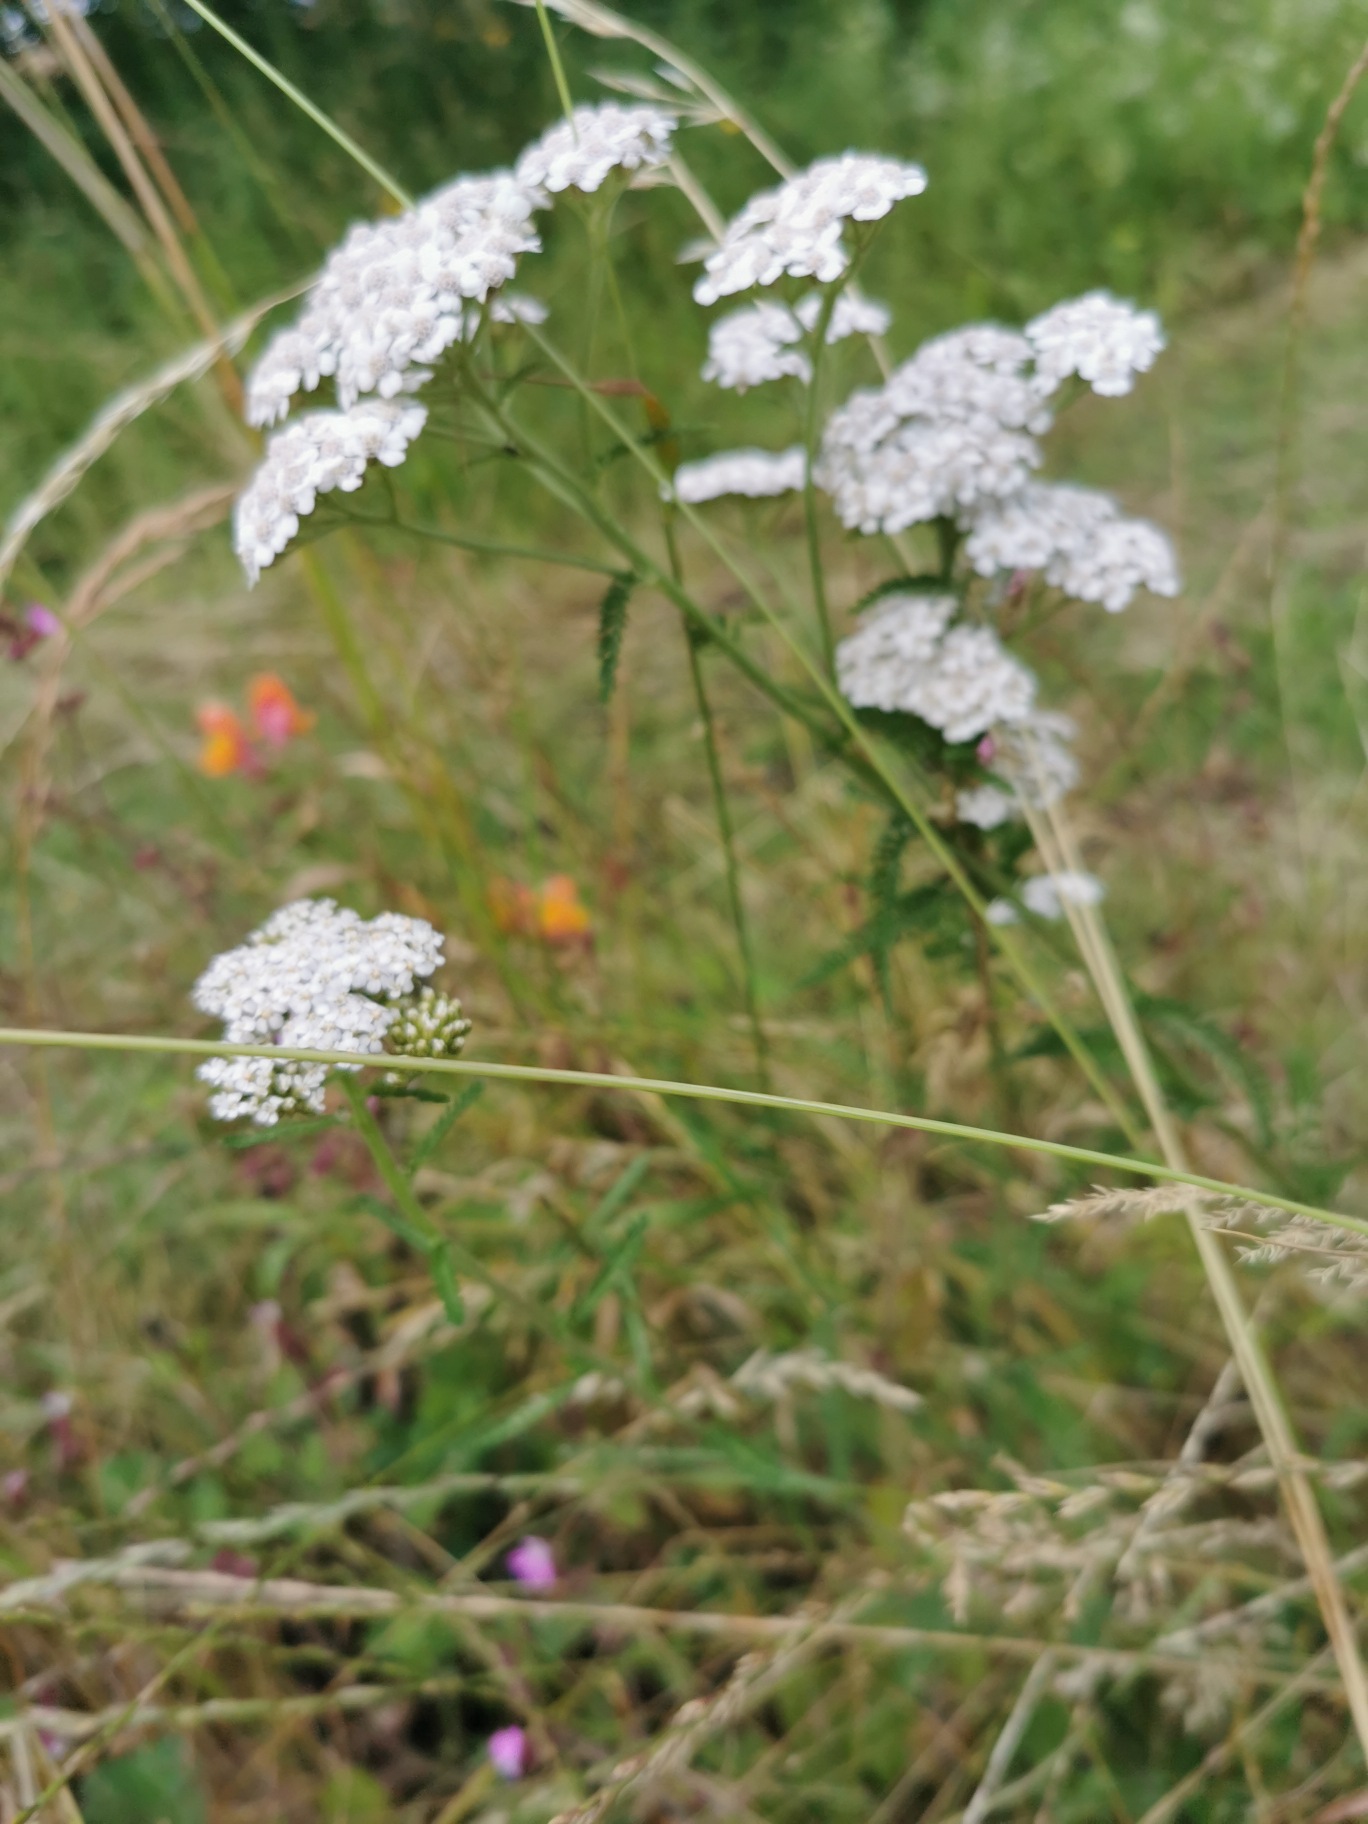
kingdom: Plantae
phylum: Tracheophyta
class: Magnoliopsida
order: Asterales
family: Asteraceae
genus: Achillea
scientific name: Achillea millefolium
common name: Almindelig røllike
